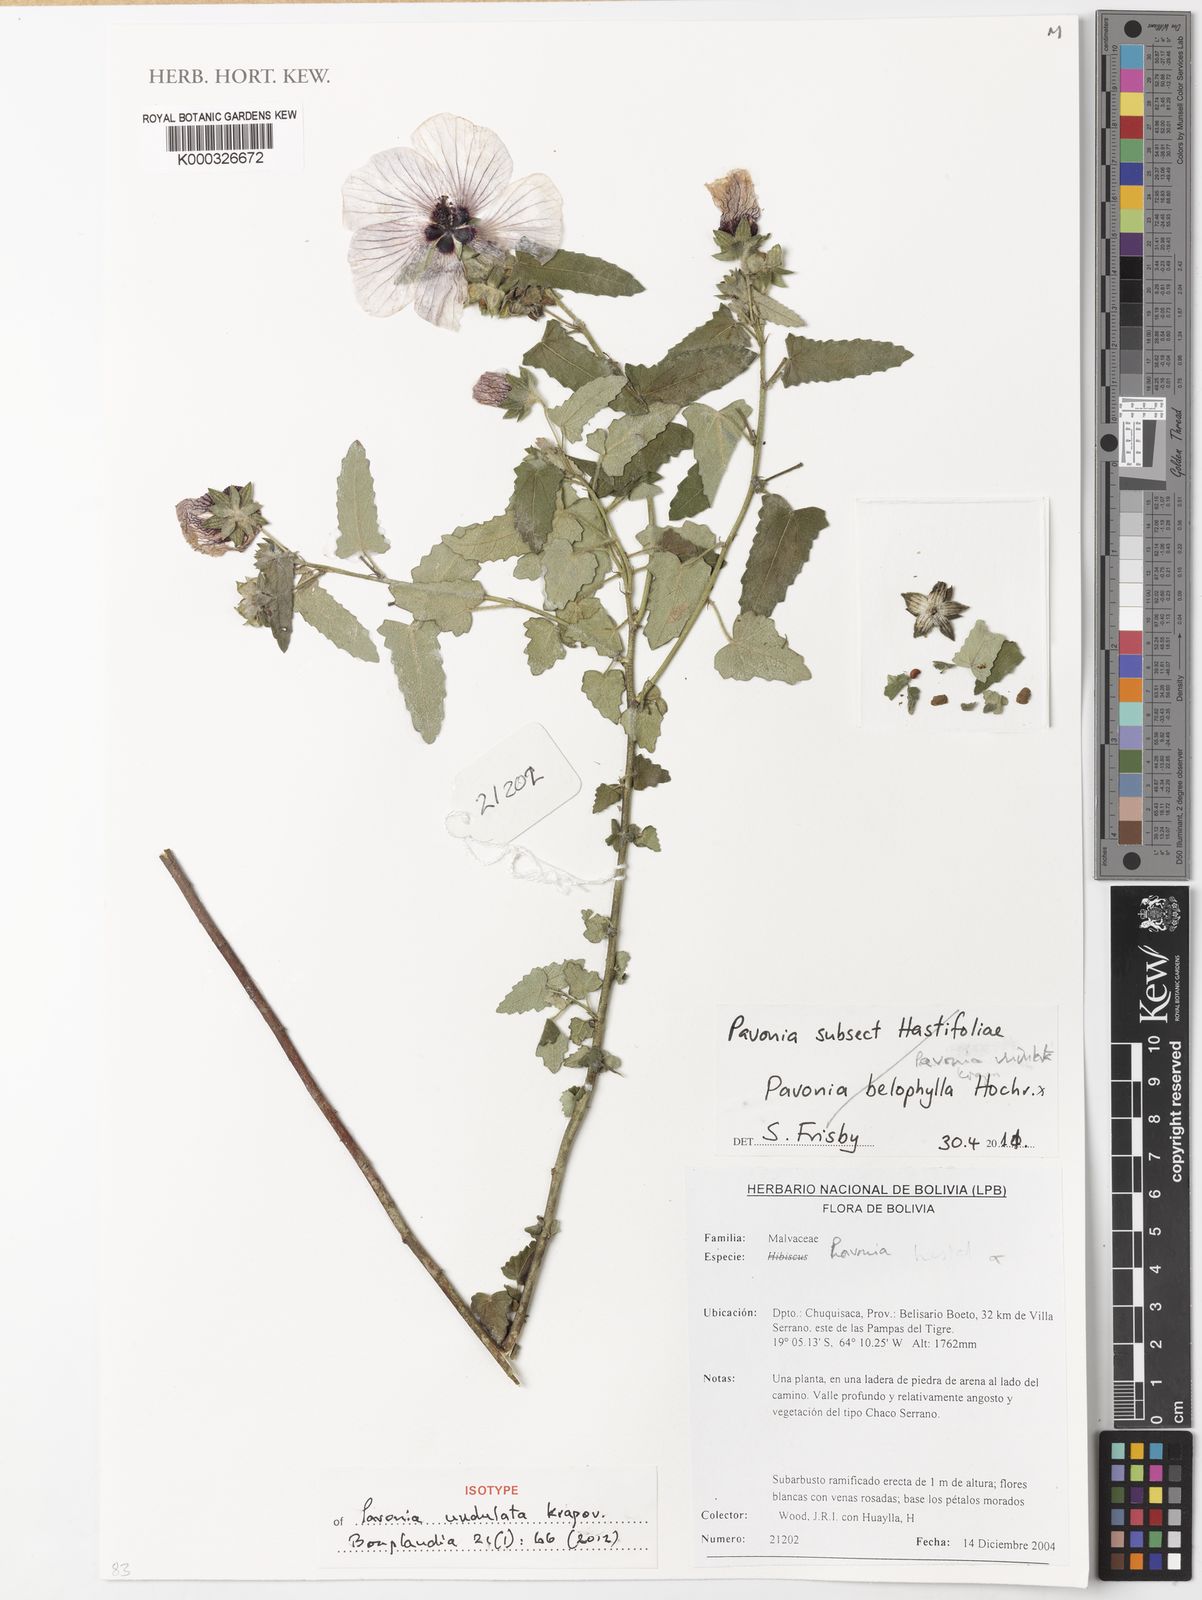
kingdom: Plantae
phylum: Tracheophyta
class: Magnoliopsida
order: Malvales
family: Malvaceae
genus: Pavonia
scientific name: Pavonia undulata
